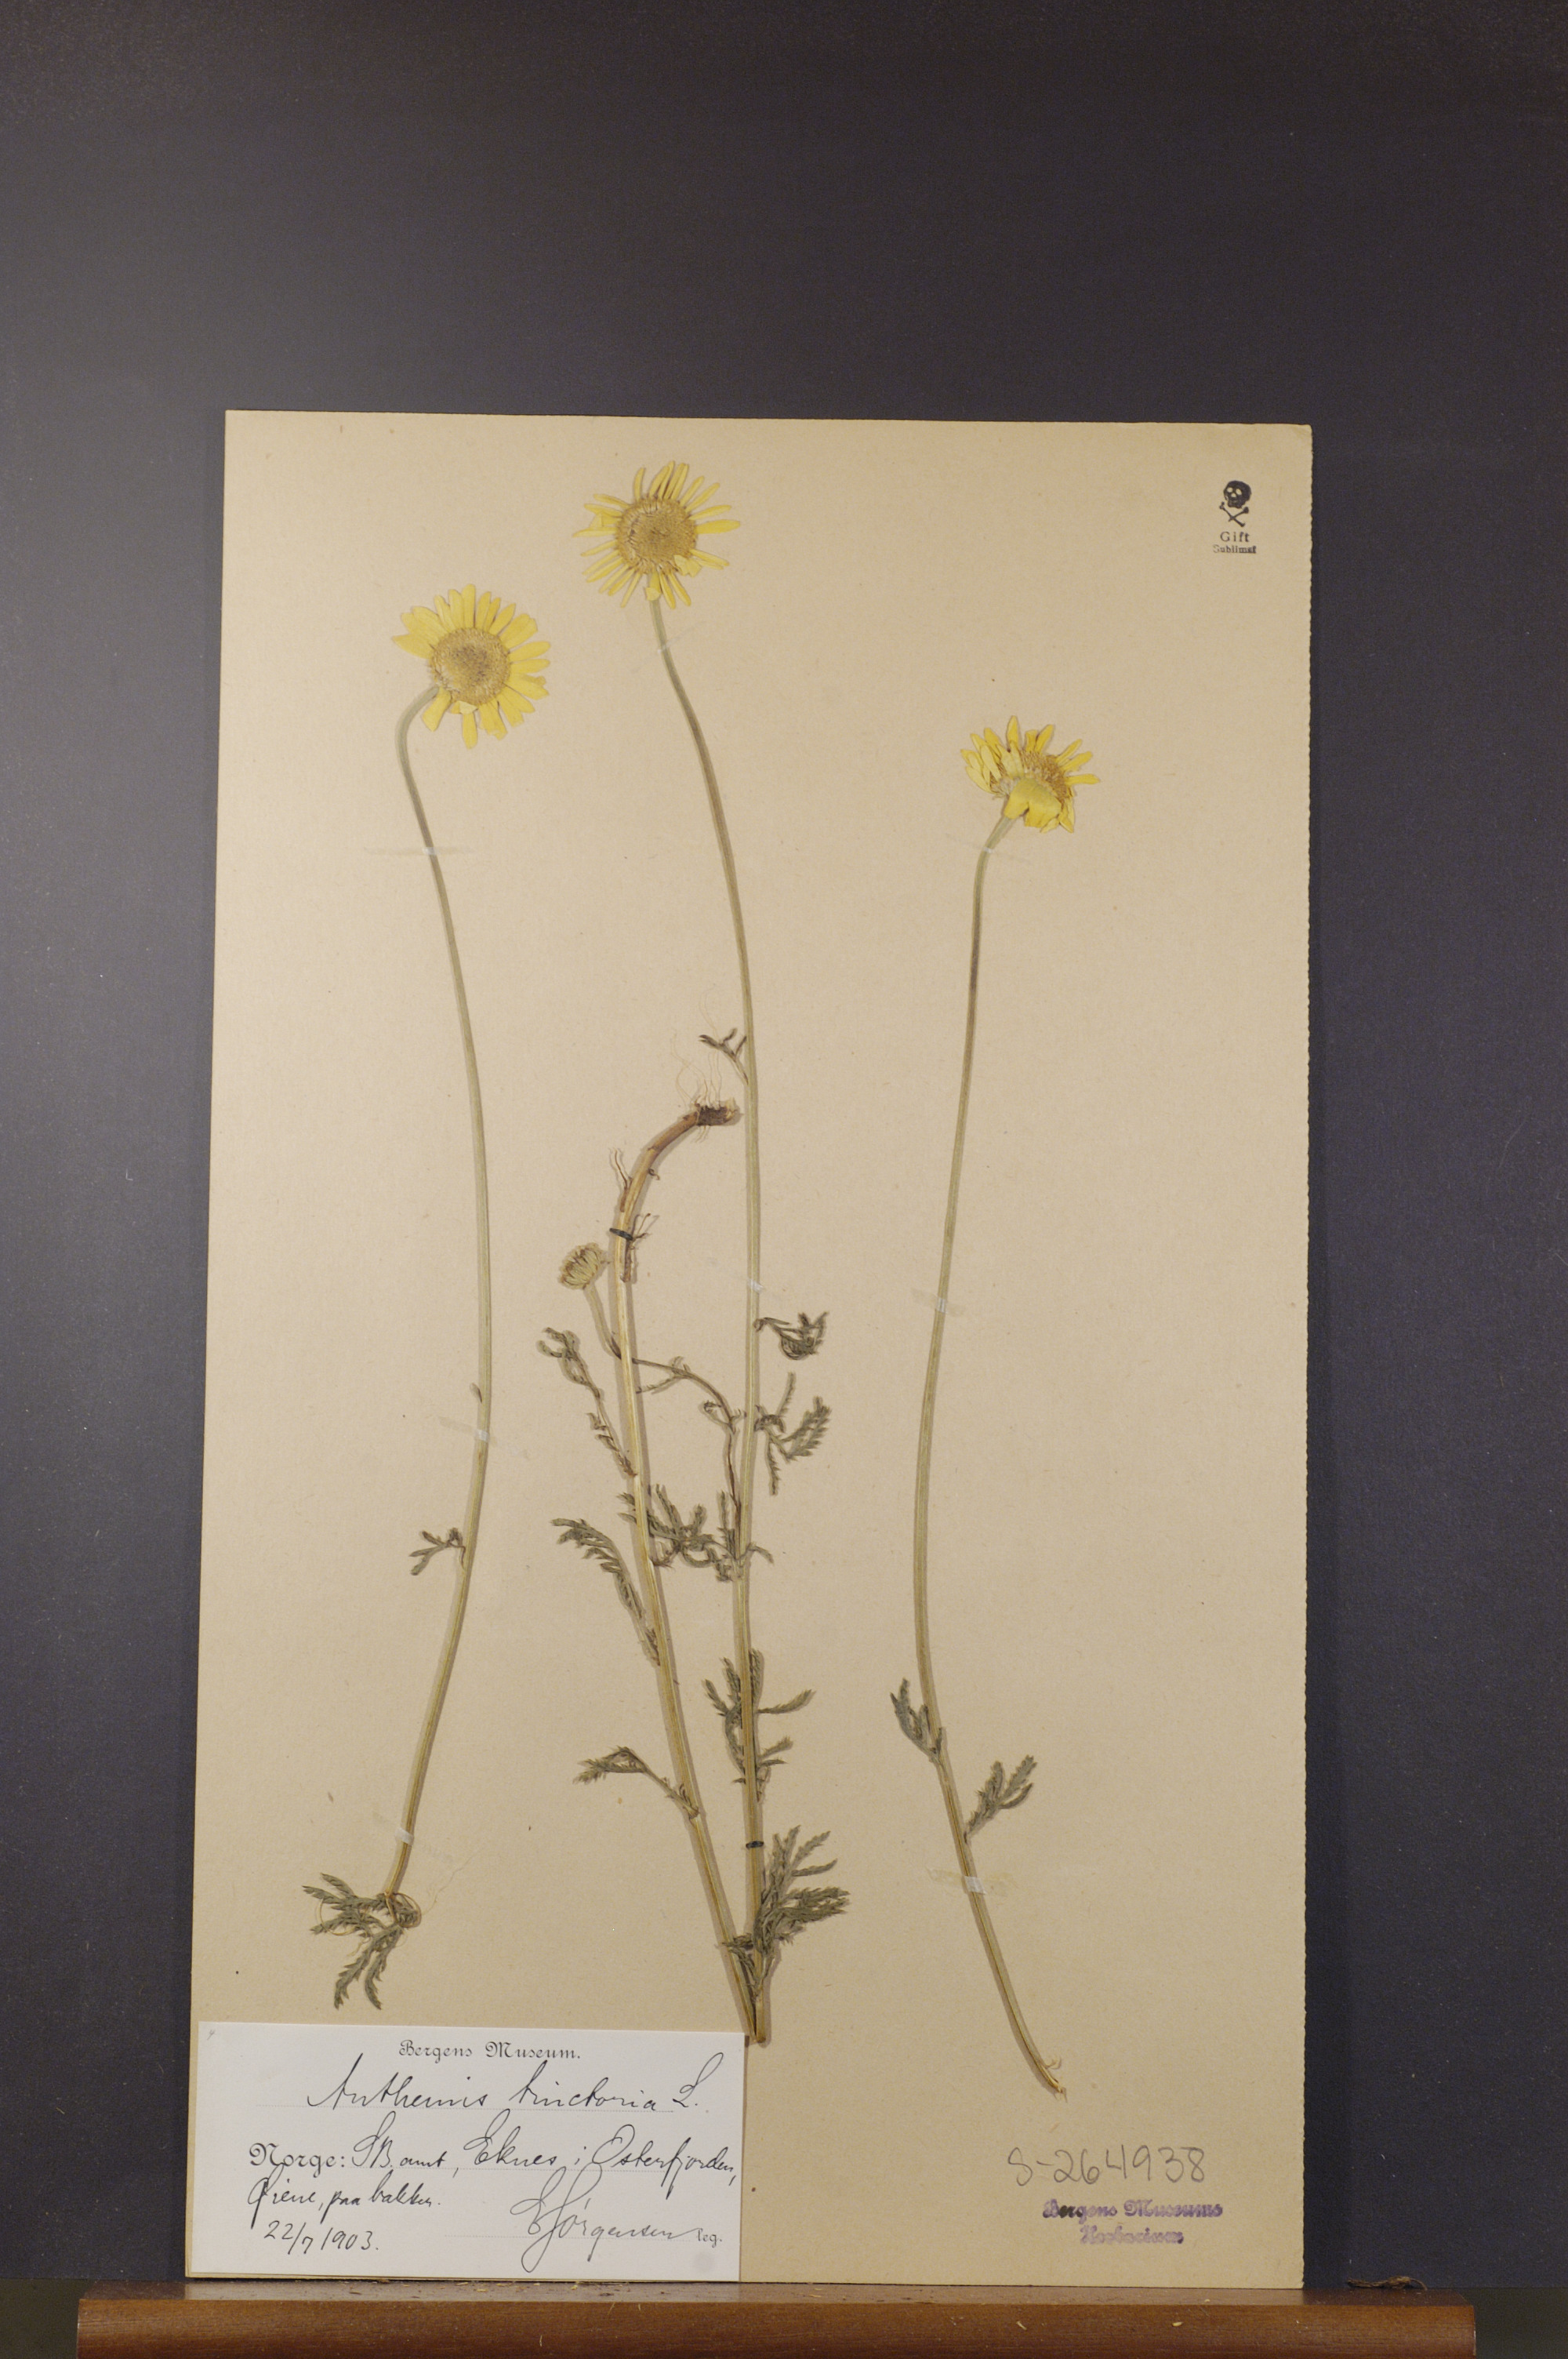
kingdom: Plantae
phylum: Tracheophyta
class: Magnoliopsida
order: Asterales
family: Asteraceae
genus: Cota
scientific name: Cota tinctoria
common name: Golden chamomile
